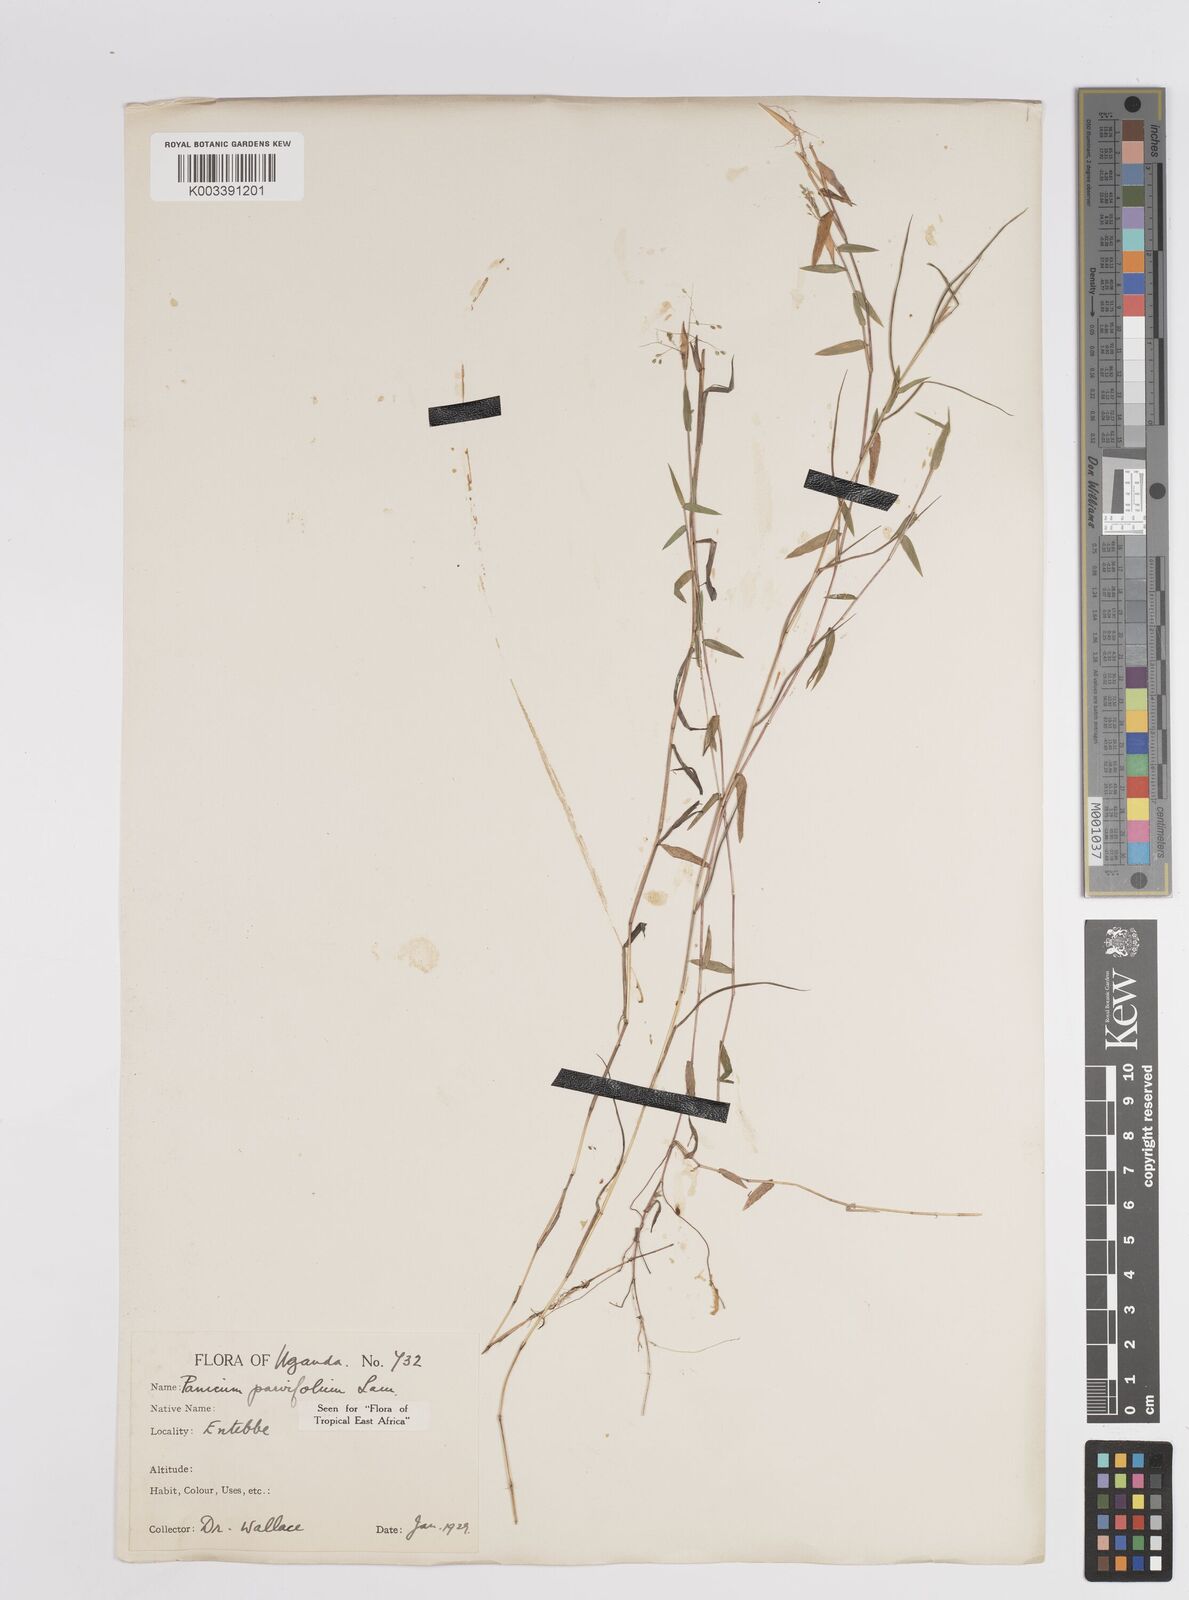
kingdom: Plantae
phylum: Tracheophyta
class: Liliopsida
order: Poales
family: Poaceae
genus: Trichanthecium
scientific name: Trichanthecium parvifolium
